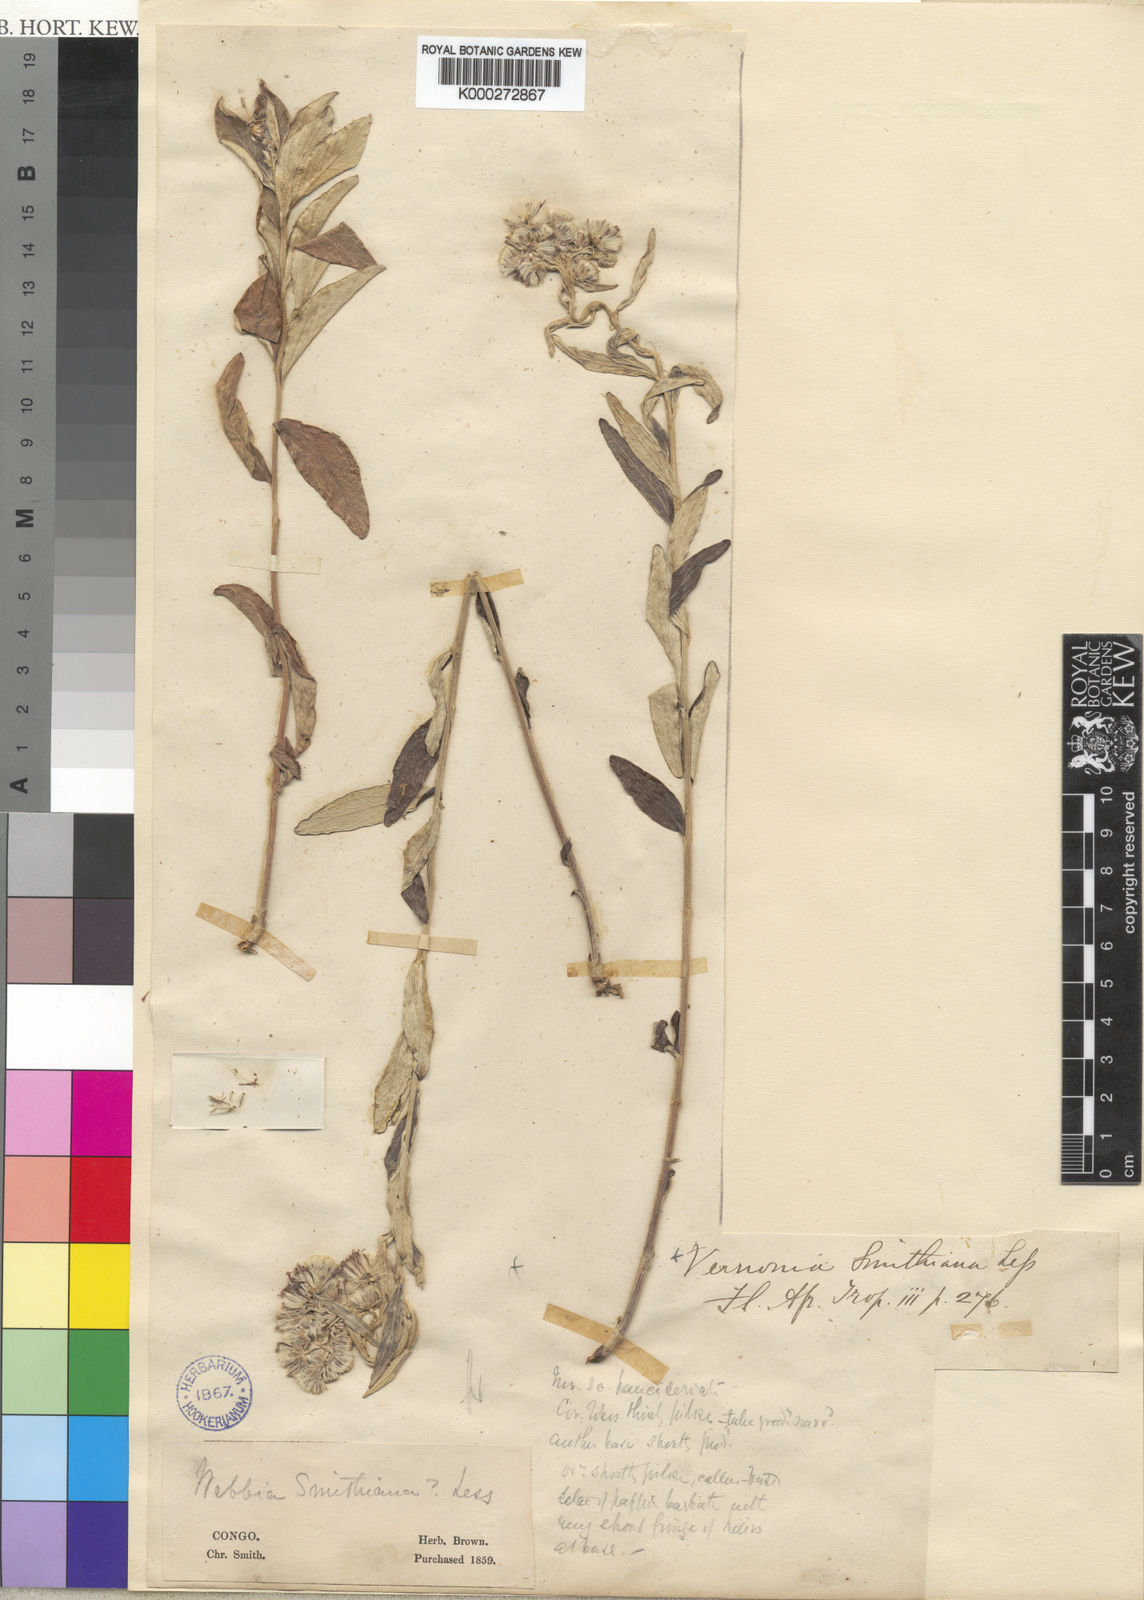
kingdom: Plantae
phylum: Tracheophyta
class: Magnoliopsida
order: Asterales
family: Asteraceae
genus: Hilliardiella
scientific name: Hilliardiella smithiana
